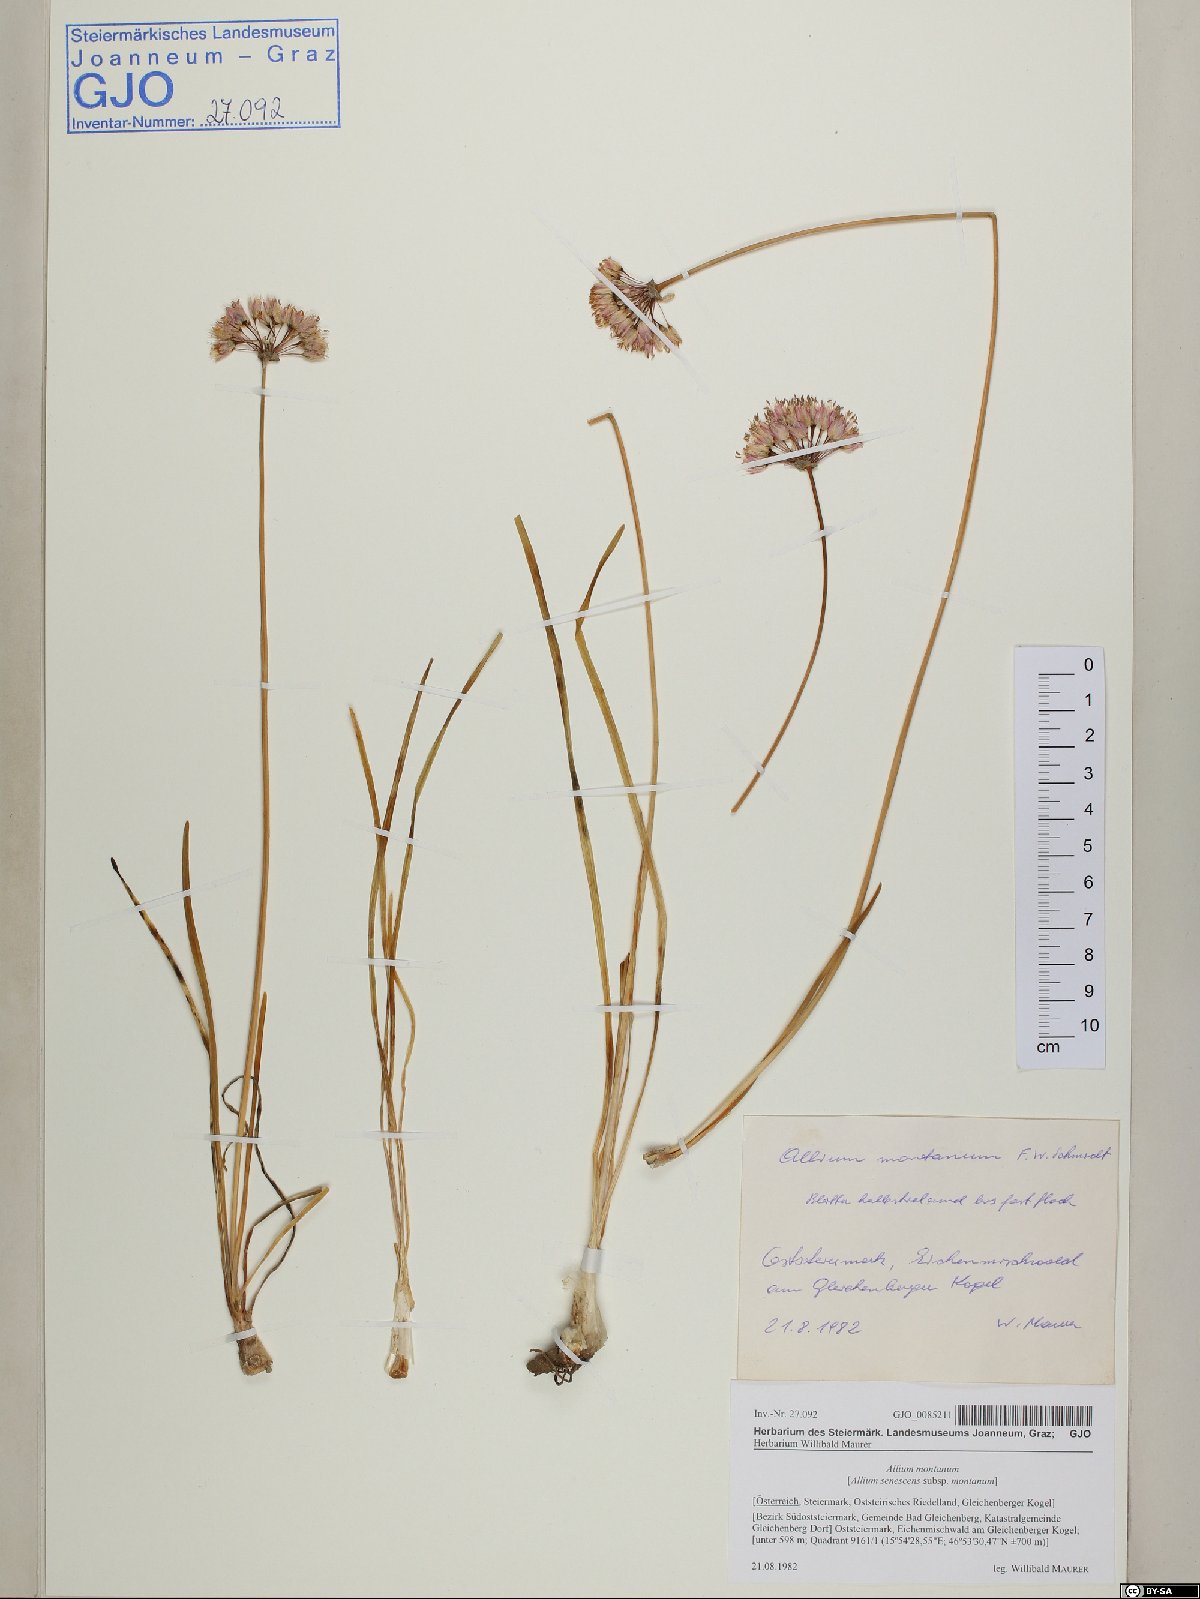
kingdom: Plantae
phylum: Tracheophyta
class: Liliopsida
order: Asparagales
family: Amaryllidaceae
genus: Allium
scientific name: Allium lusitanicum
